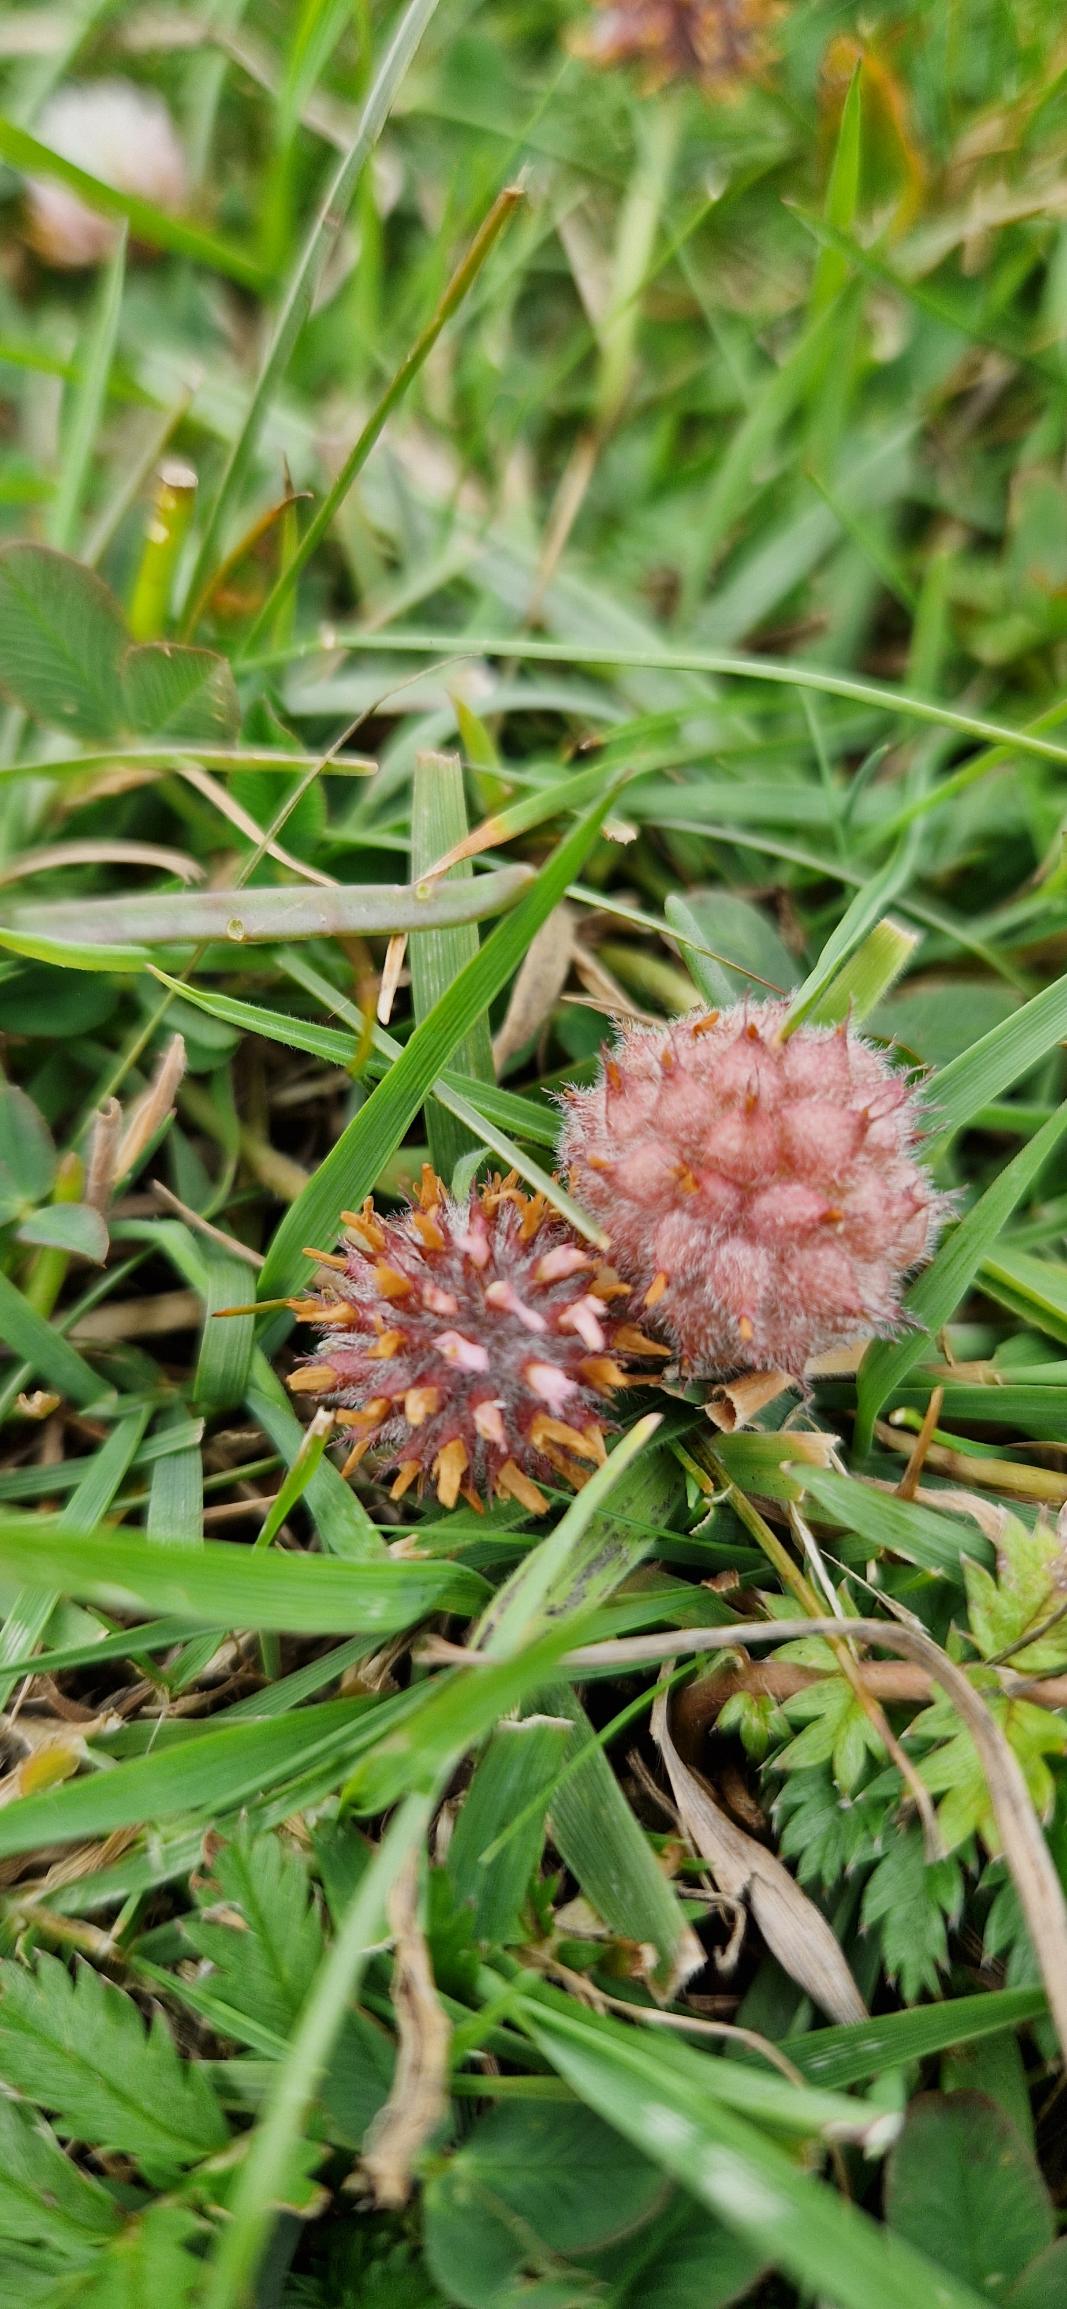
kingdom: Plantae
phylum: Tracheophyta
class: Magnoliopsida
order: Fabales
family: Fabaceae
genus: Trifolium
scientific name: Trifolium fragiferum
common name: Jordbær-kløver
